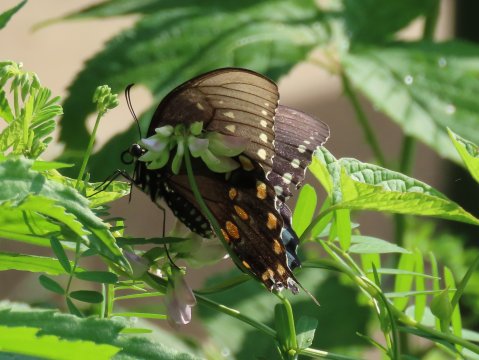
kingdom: Animalia
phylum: Arthropoda
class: Insecta
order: Lepidoptera
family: Papilionidae
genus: Pterourus
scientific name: Pterourus troilus
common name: Spicebush Swallowtail
